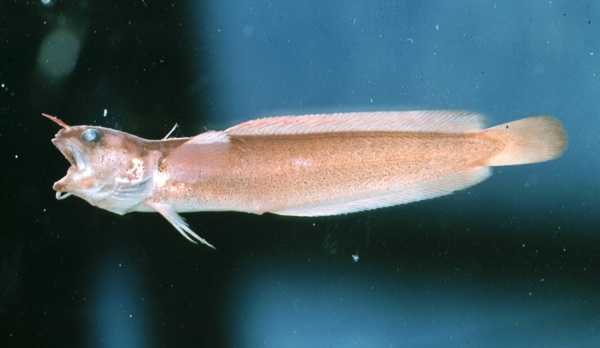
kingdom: Animalia
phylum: Chordata
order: Gadiformes
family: Lotidae
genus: Gaidropsarus
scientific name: Gaidropsarus capensis
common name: Cape rockling
